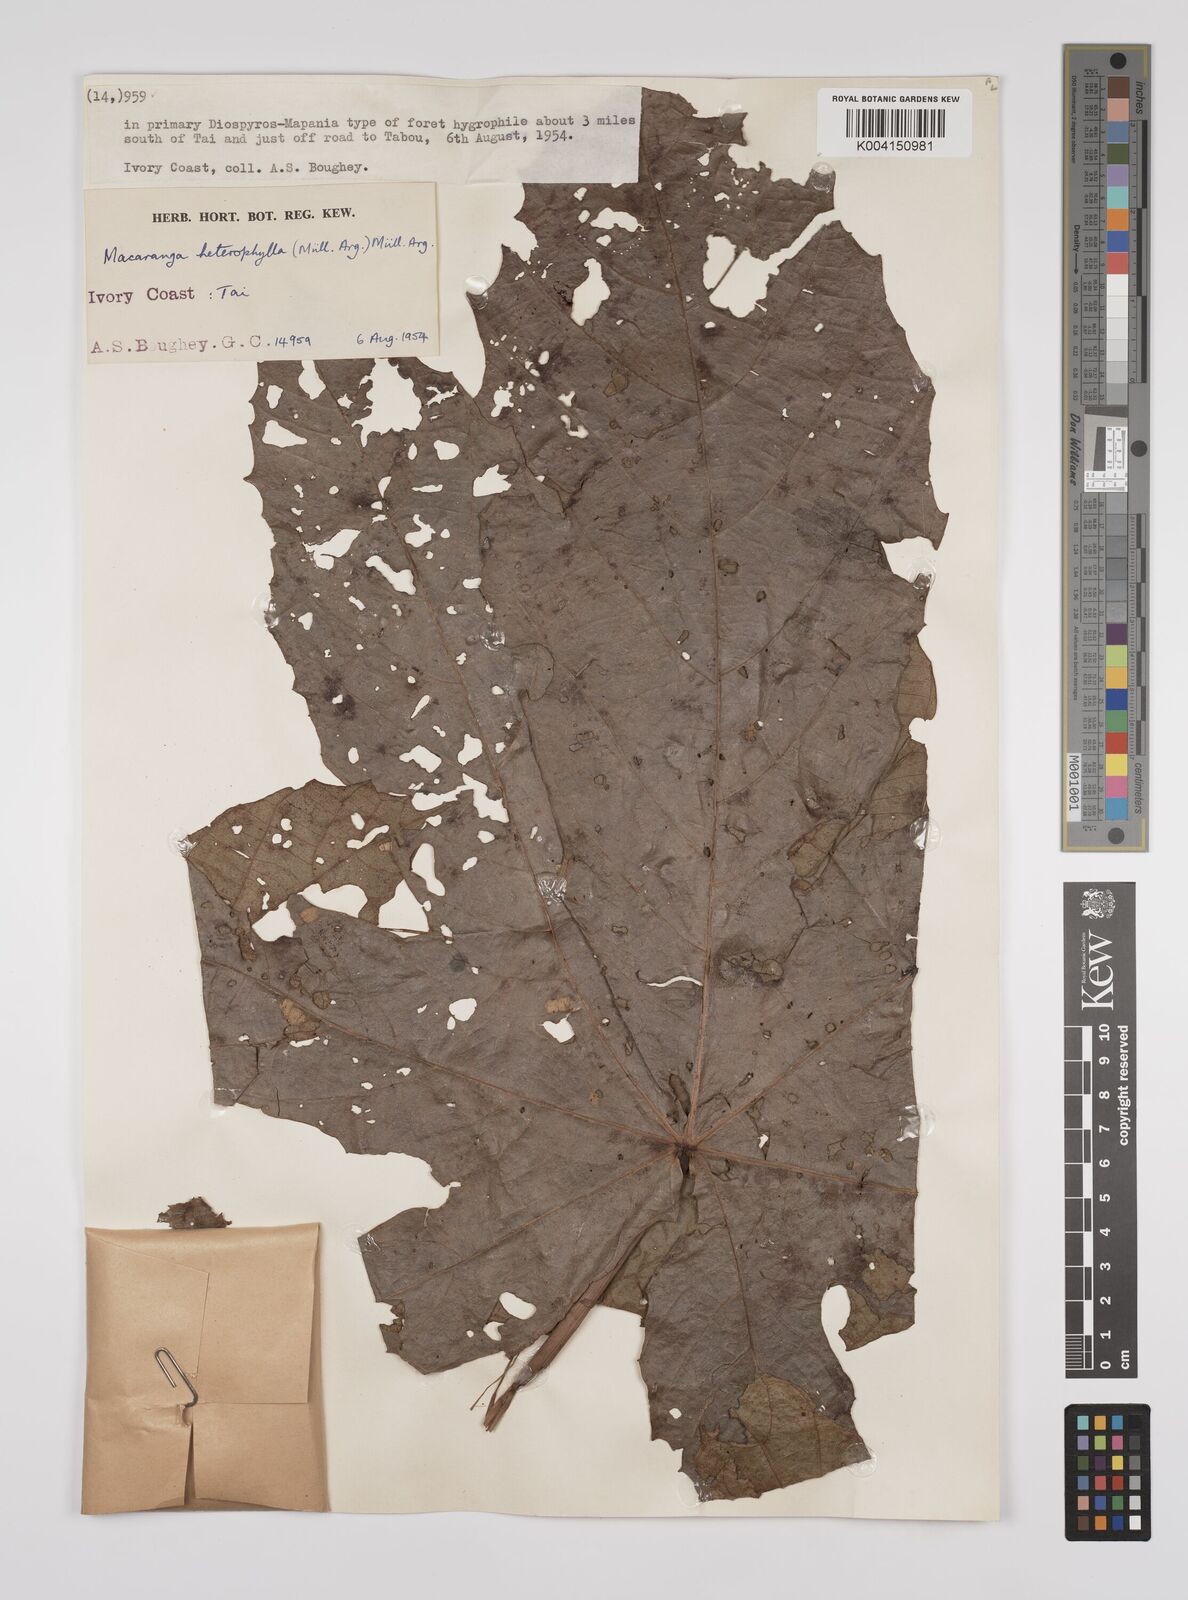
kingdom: Plantae
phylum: Tracheophyta
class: Magnoliopsida
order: Malpighiales
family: Euphorbiaceae
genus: Macaranga
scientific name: Macaranga heterophylla
